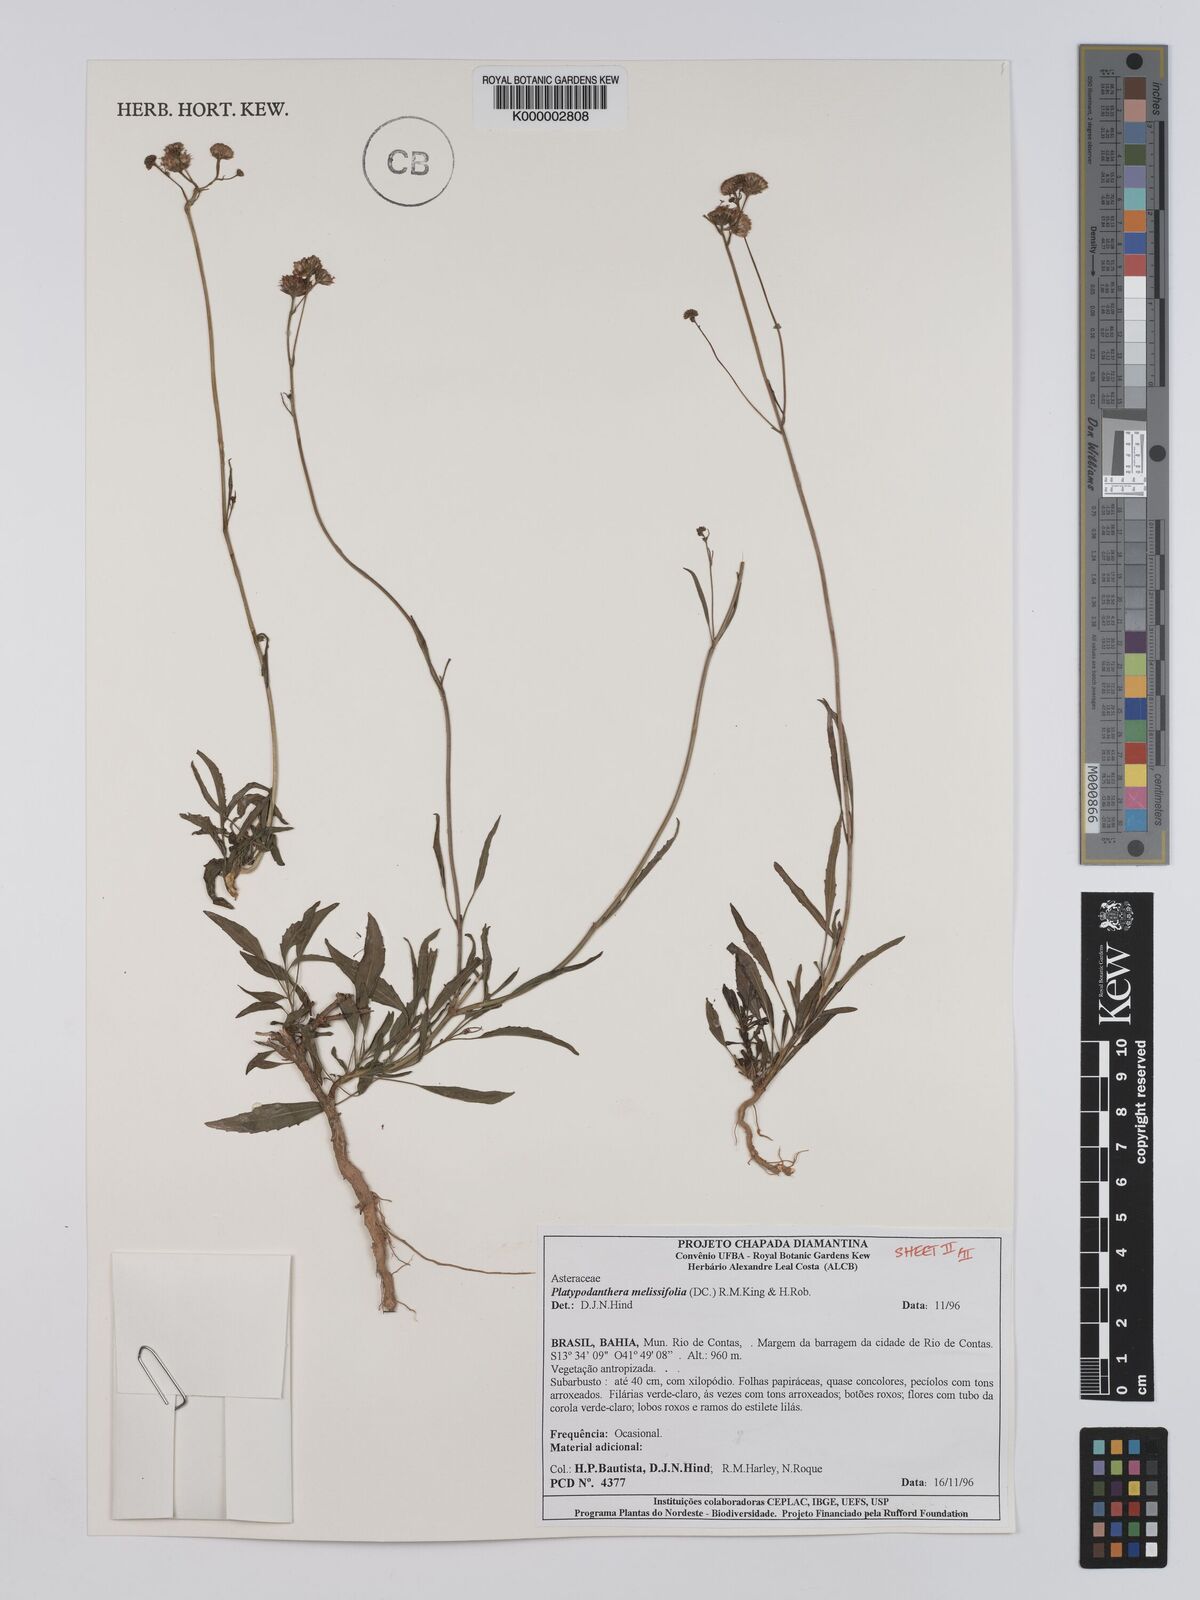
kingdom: Plantae
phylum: Tracheophyta
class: Magnoliopsida
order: Asterales
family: Asteraceae
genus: Platypodanthera
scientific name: Platypodanthera melissifolia
